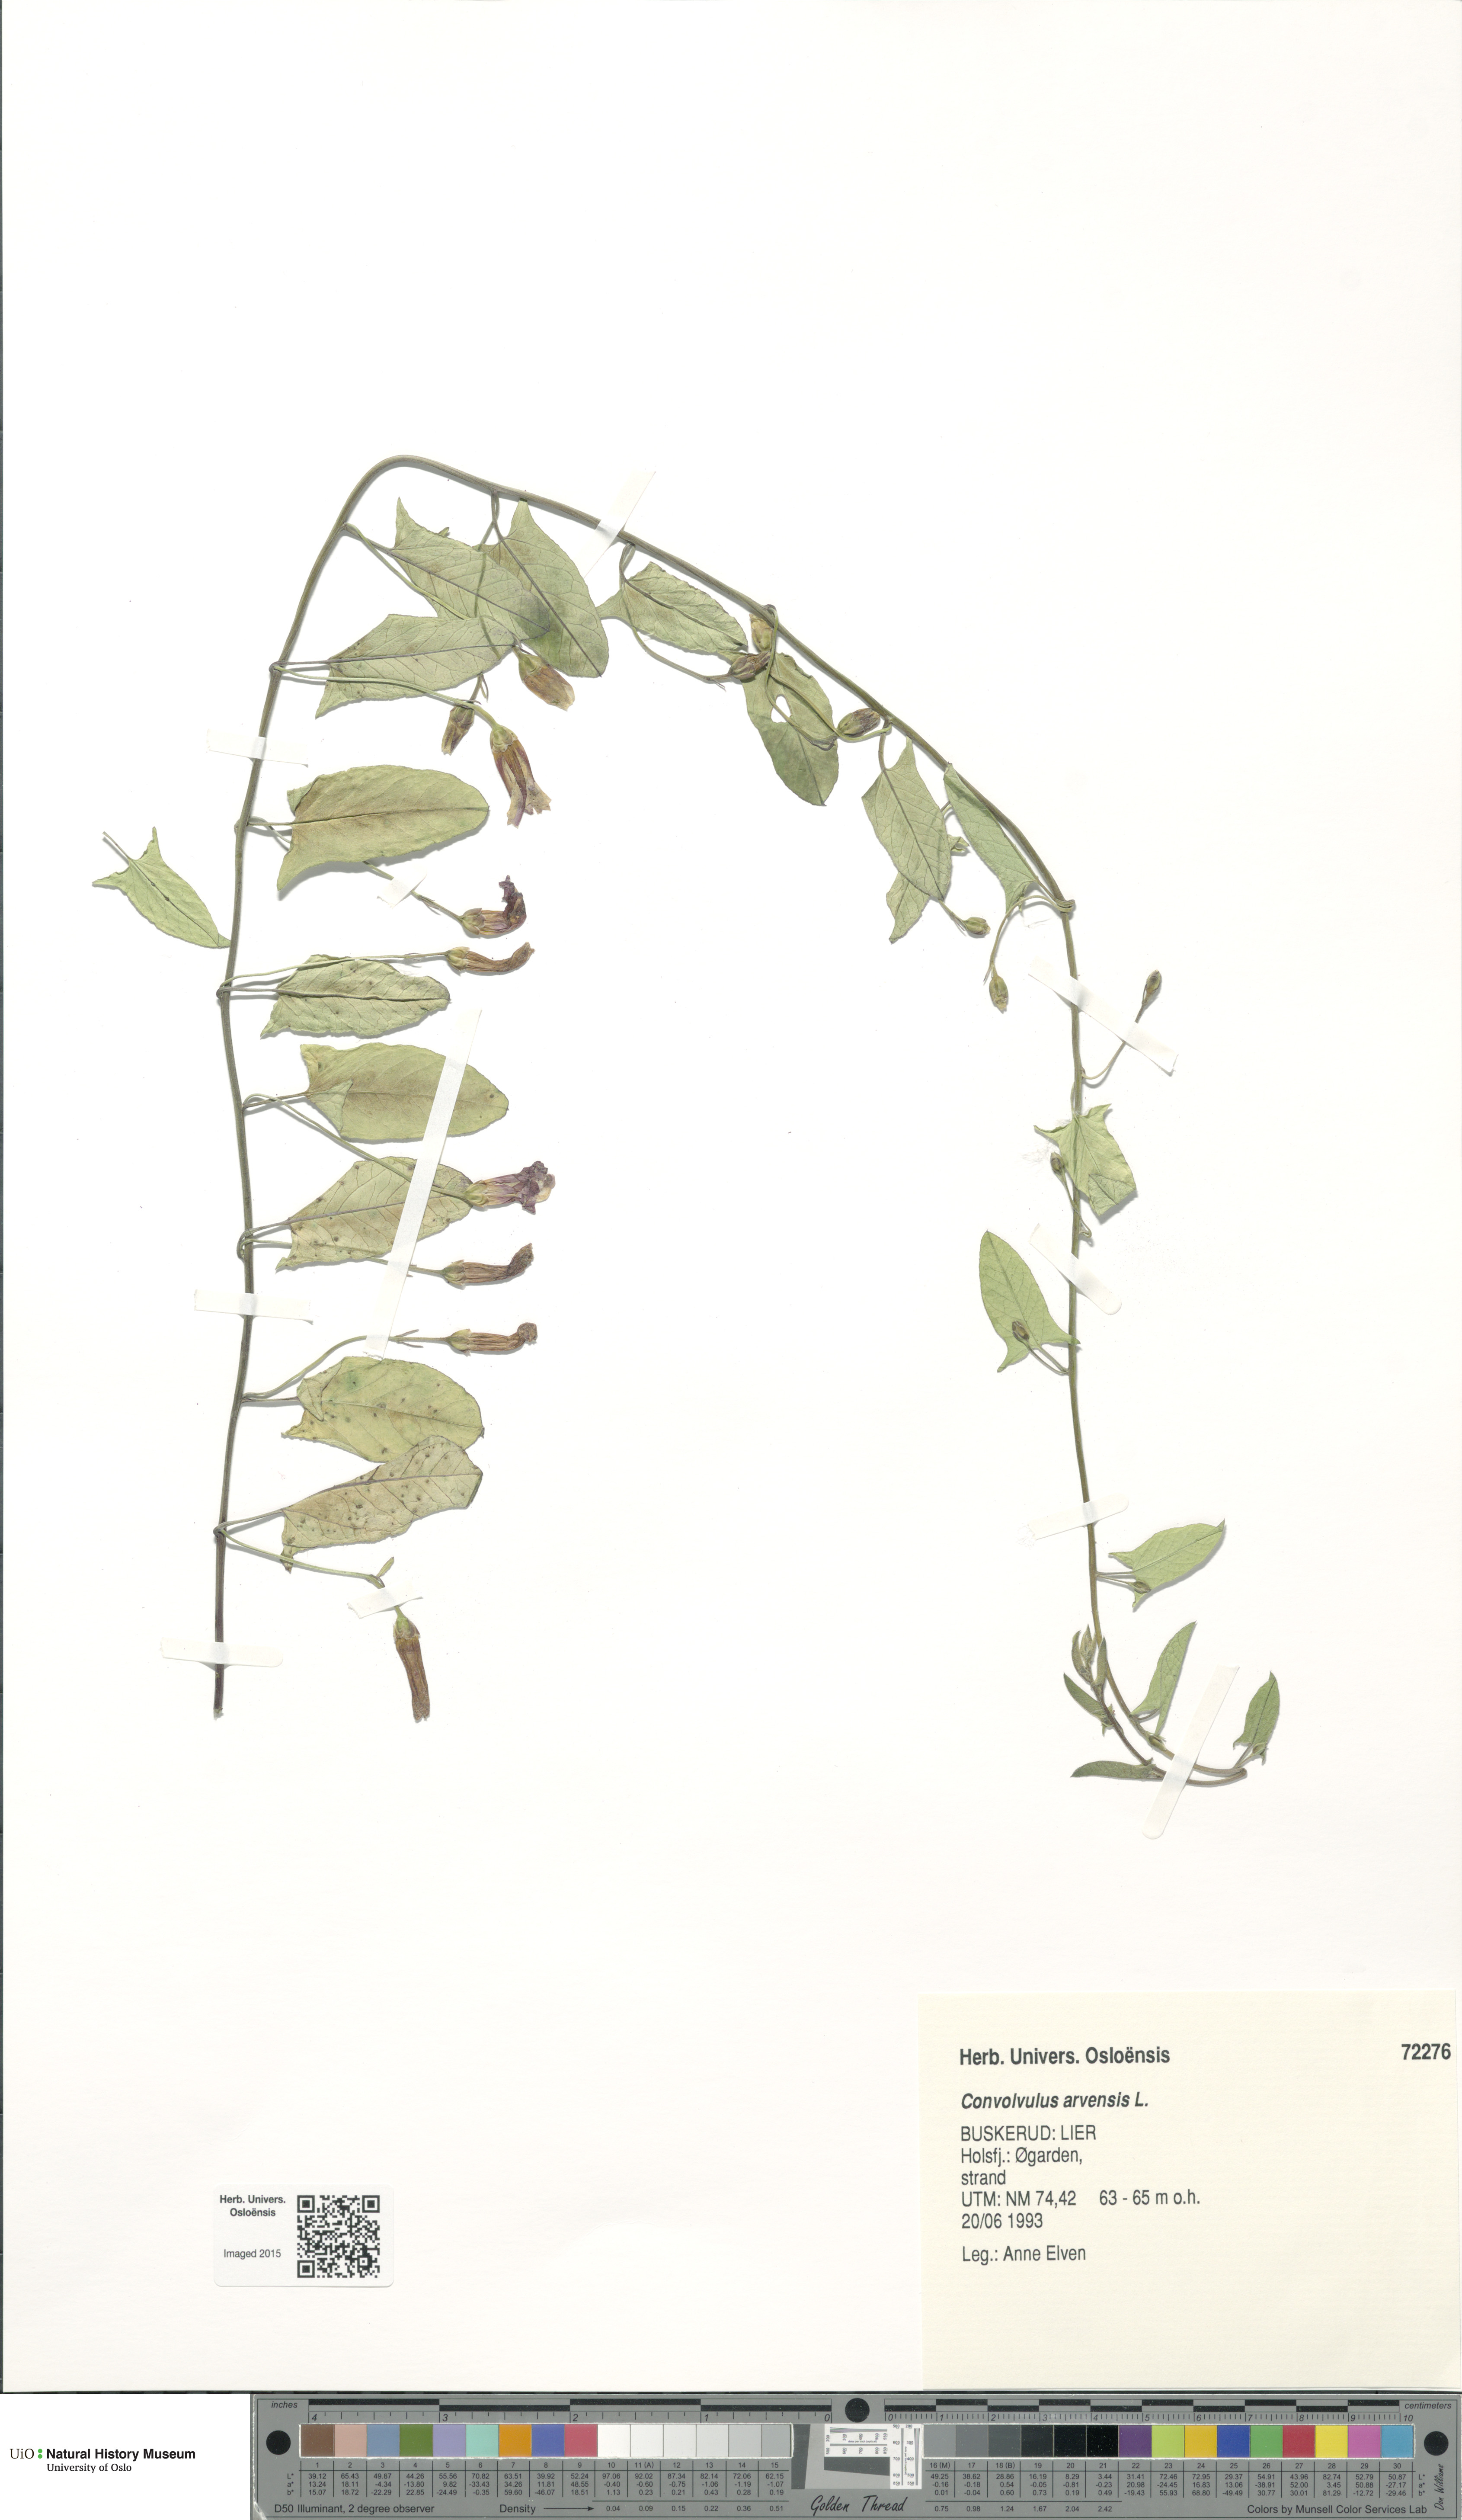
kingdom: Plantae
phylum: Tracheophyta
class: Magnoliopsida
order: Solanales
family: Convolvulaceae
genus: Convolvulus
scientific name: Convolvulus arvensis
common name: Field bindweed
